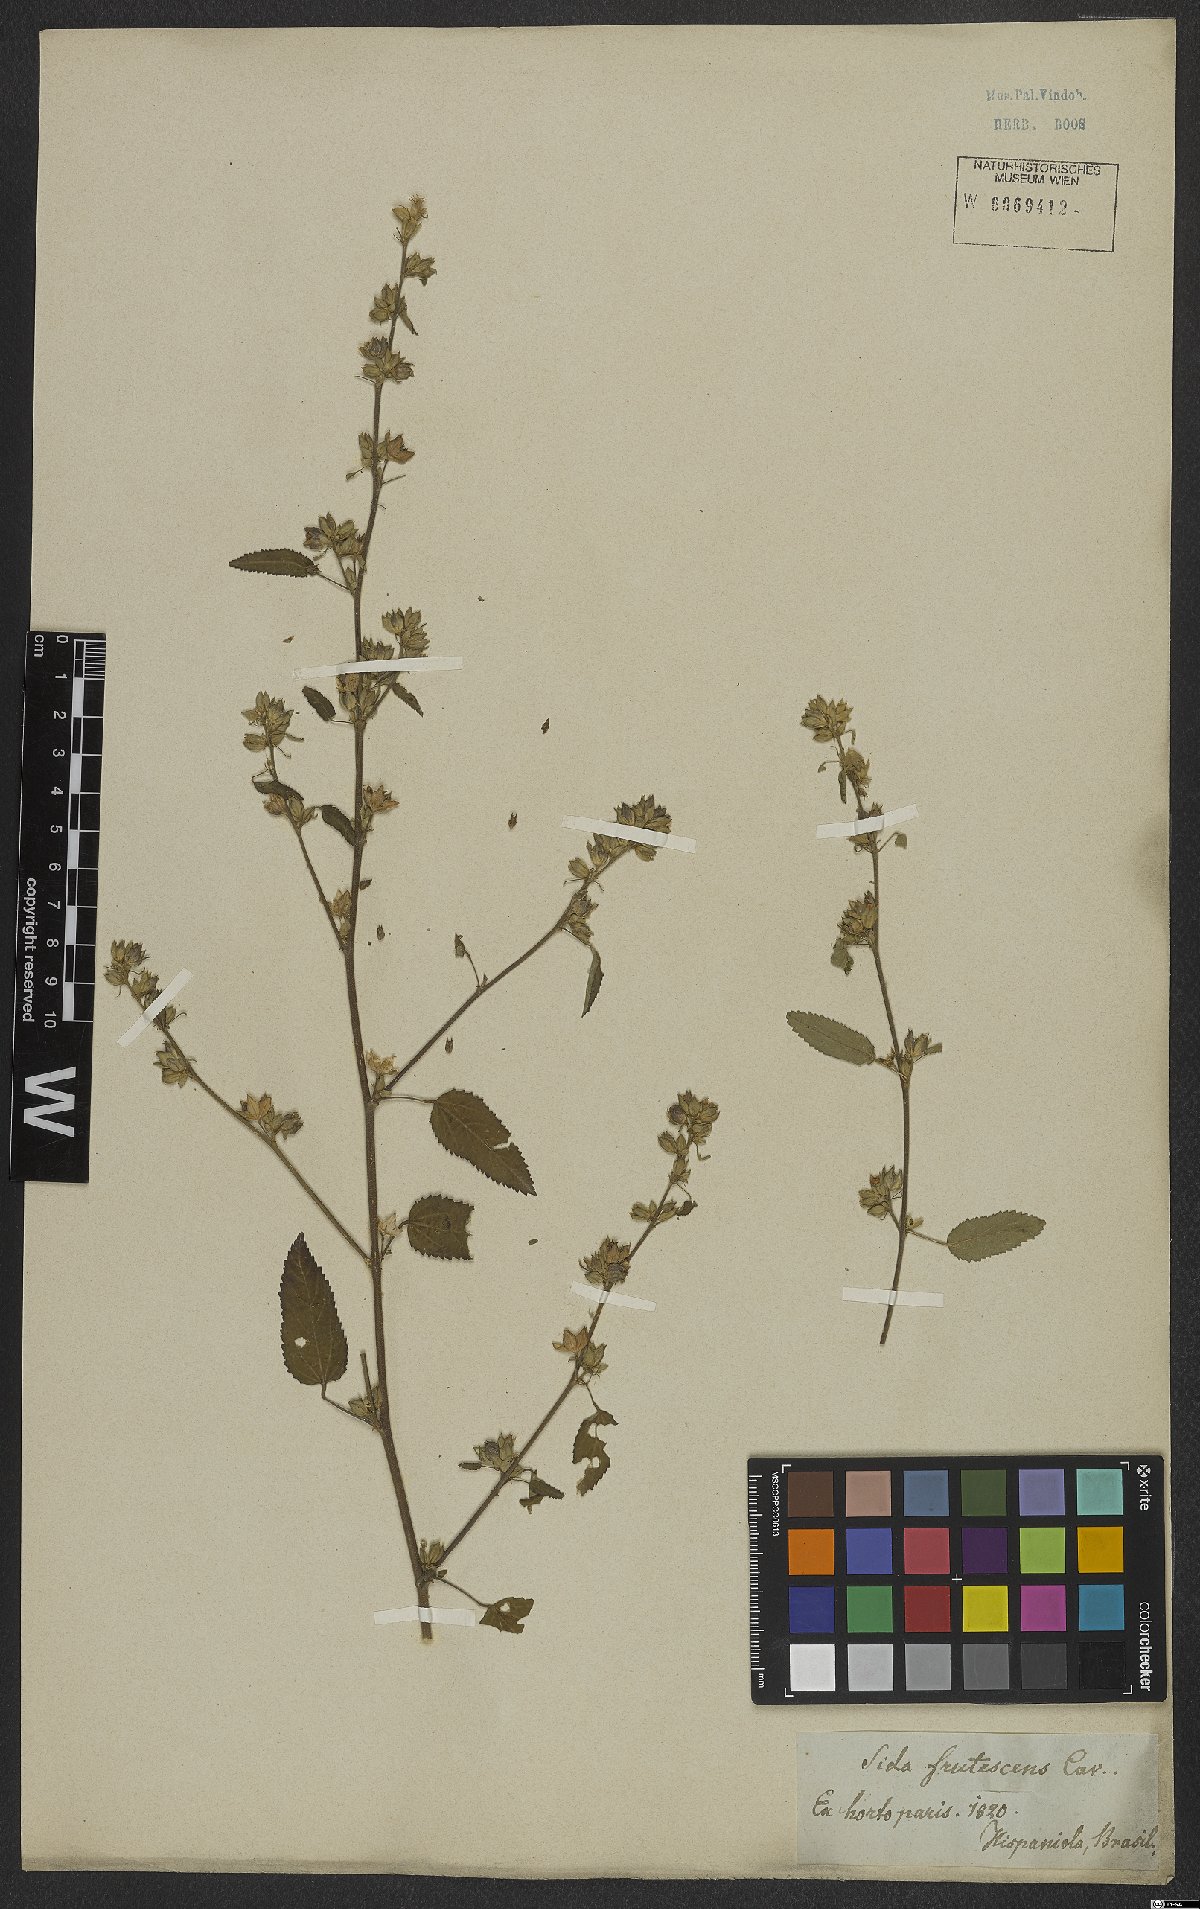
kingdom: Plantae
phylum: Tracheophyta
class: Magnoliopsida
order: Malvales
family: Malvaceae
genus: Sida
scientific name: Sida acuta
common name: Common wireweed
